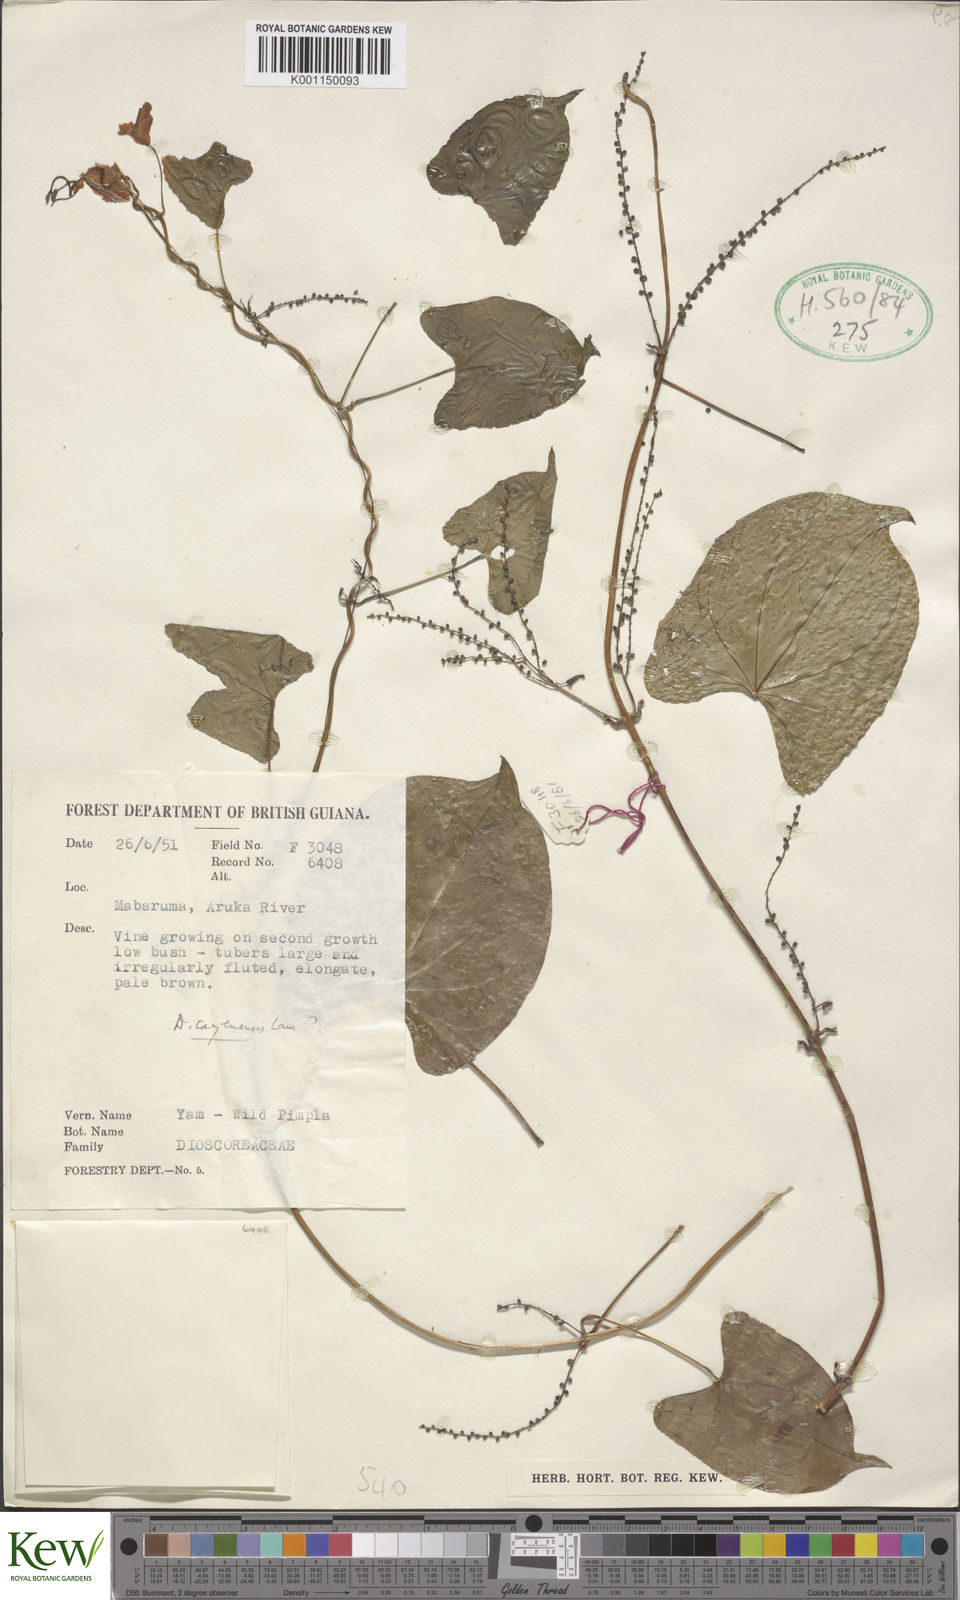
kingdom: Plantae
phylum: Tracheophyta
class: Liliopsida
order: Dioscoreales
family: Dioscoreaceae
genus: Dioscorea
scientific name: Dioscorea cayenensis
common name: Attoto yam
